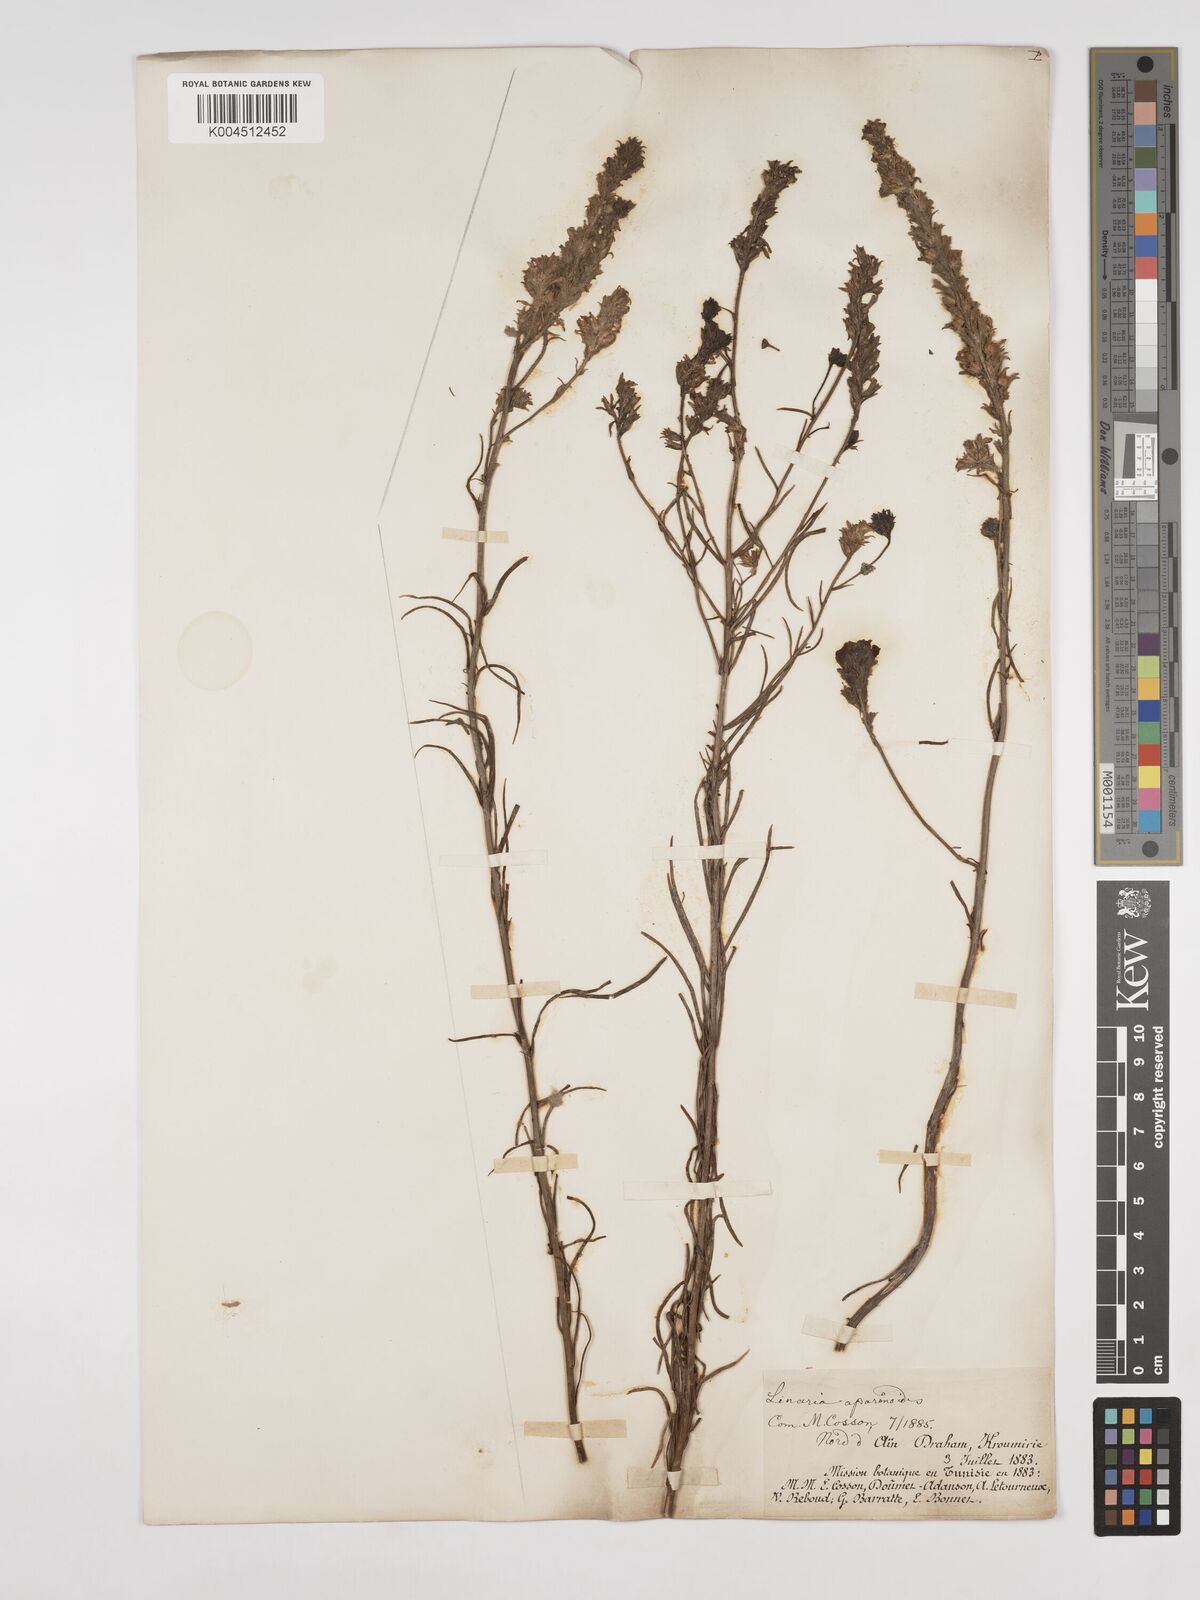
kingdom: Plantae
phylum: Tracheophyta
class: Magnoliopsida
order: Lamiales
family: Plantaginaceae
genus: Linaria
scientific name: Linaria multicaulis
